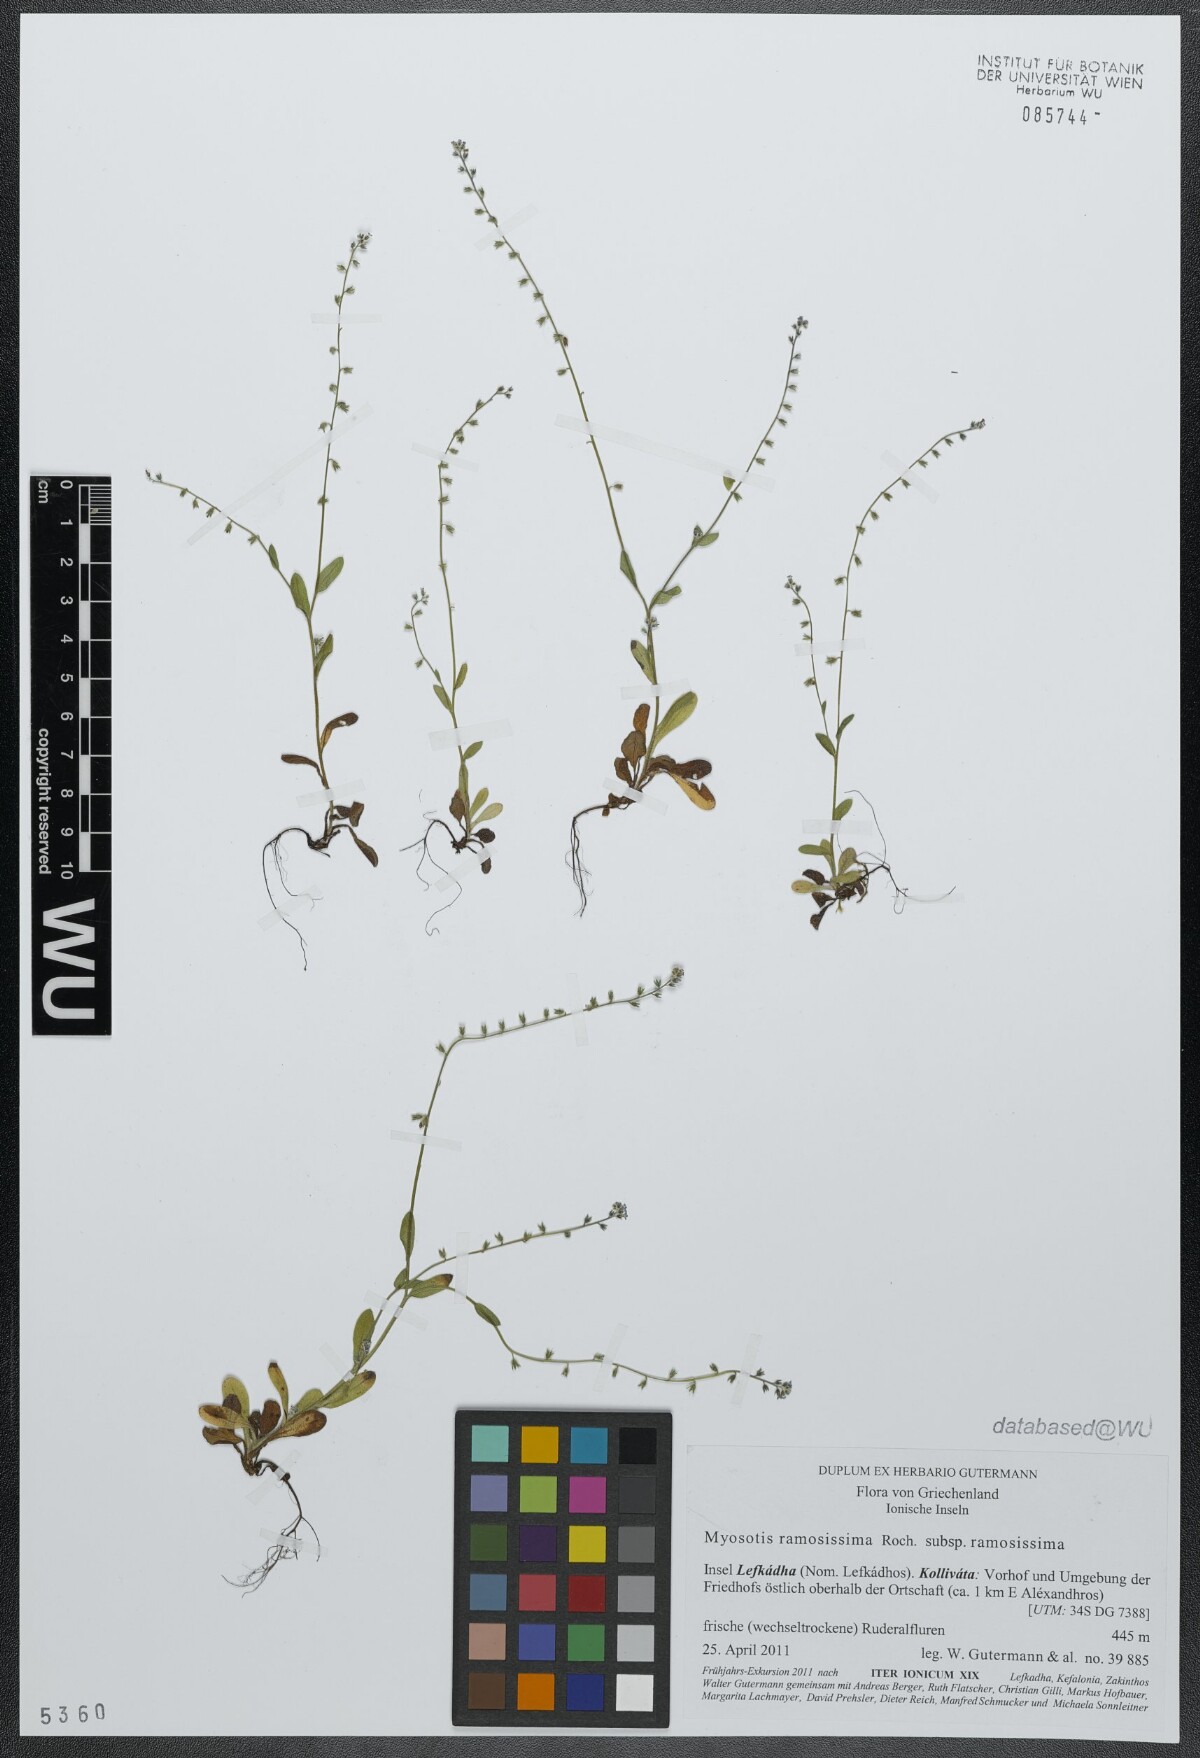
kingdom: Plantae
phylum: Tracheophyta
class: Magnoliopsida
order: Boraginales
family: Boraginaceae
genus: Myosotis
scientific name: Myosotis ramosissima
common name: Early forget-me-not
